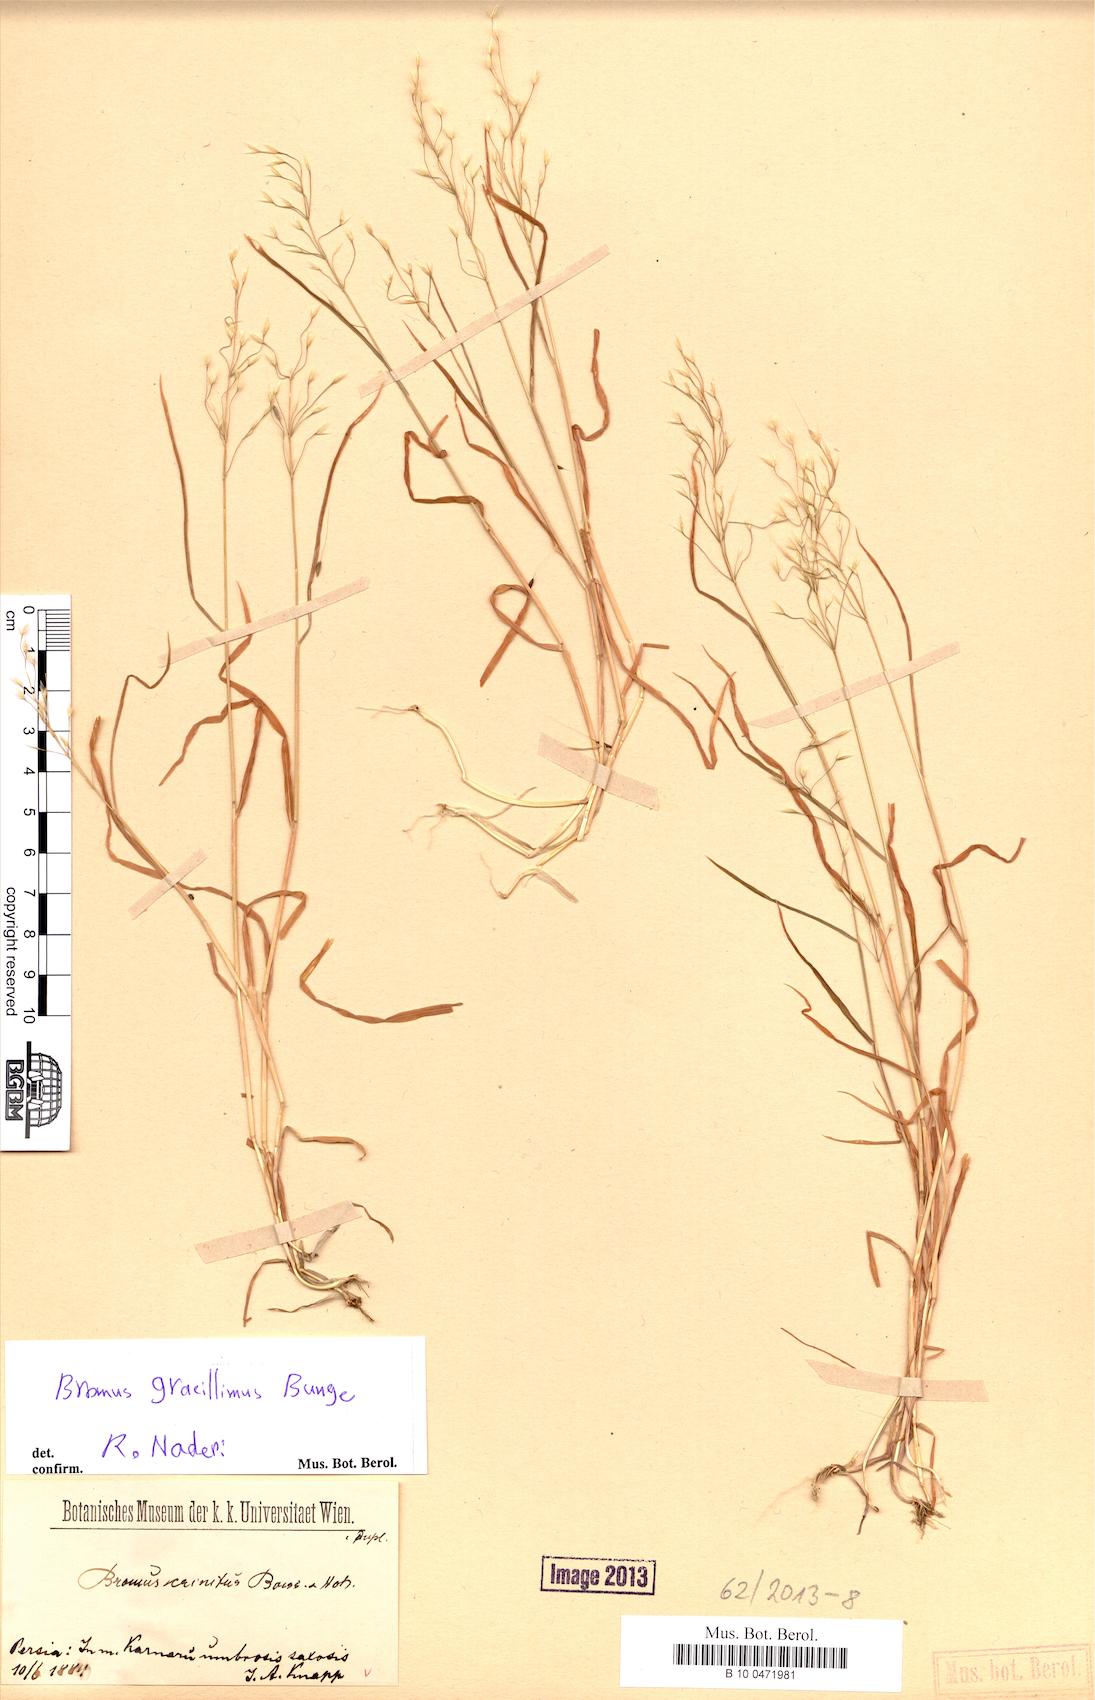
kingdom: Plantae
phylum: Tracheophyta
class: Liliopsida
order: Poales
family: Poaceae
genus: Bromus
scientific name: Bromus gracillimus
